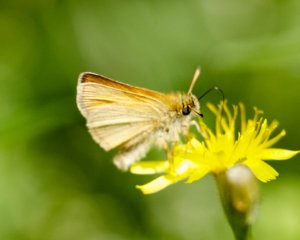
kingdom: Animalia
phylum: Arthropoda
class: Insecta
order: Lepidoptera
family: Hesperiidae
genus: Thymelicus
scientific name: Thymelicus lineola
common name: European Skipper
